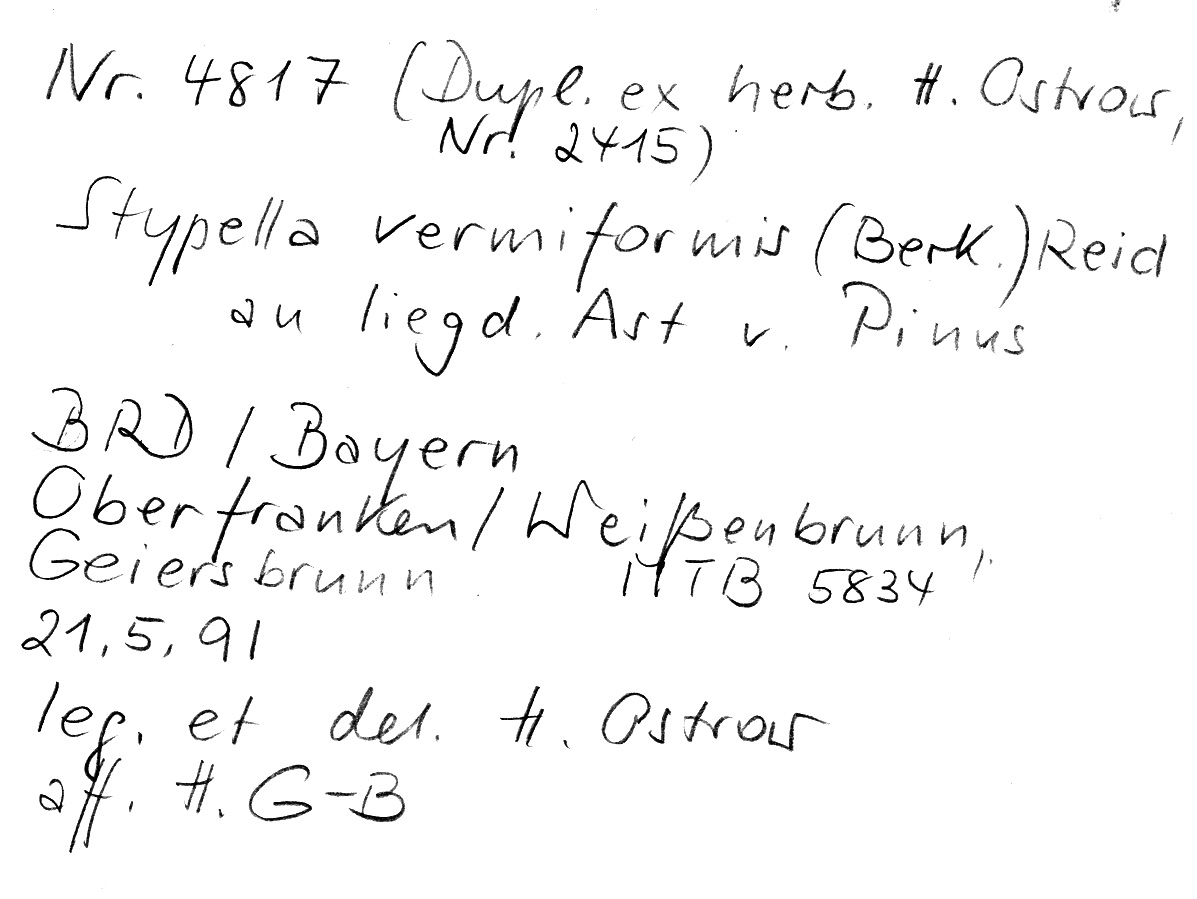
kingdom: Fungi
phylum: Basidiomycota
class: Agaricomycetes
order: Auriculariales
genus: Mycostilla
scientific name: Mycostilla vermiformis
